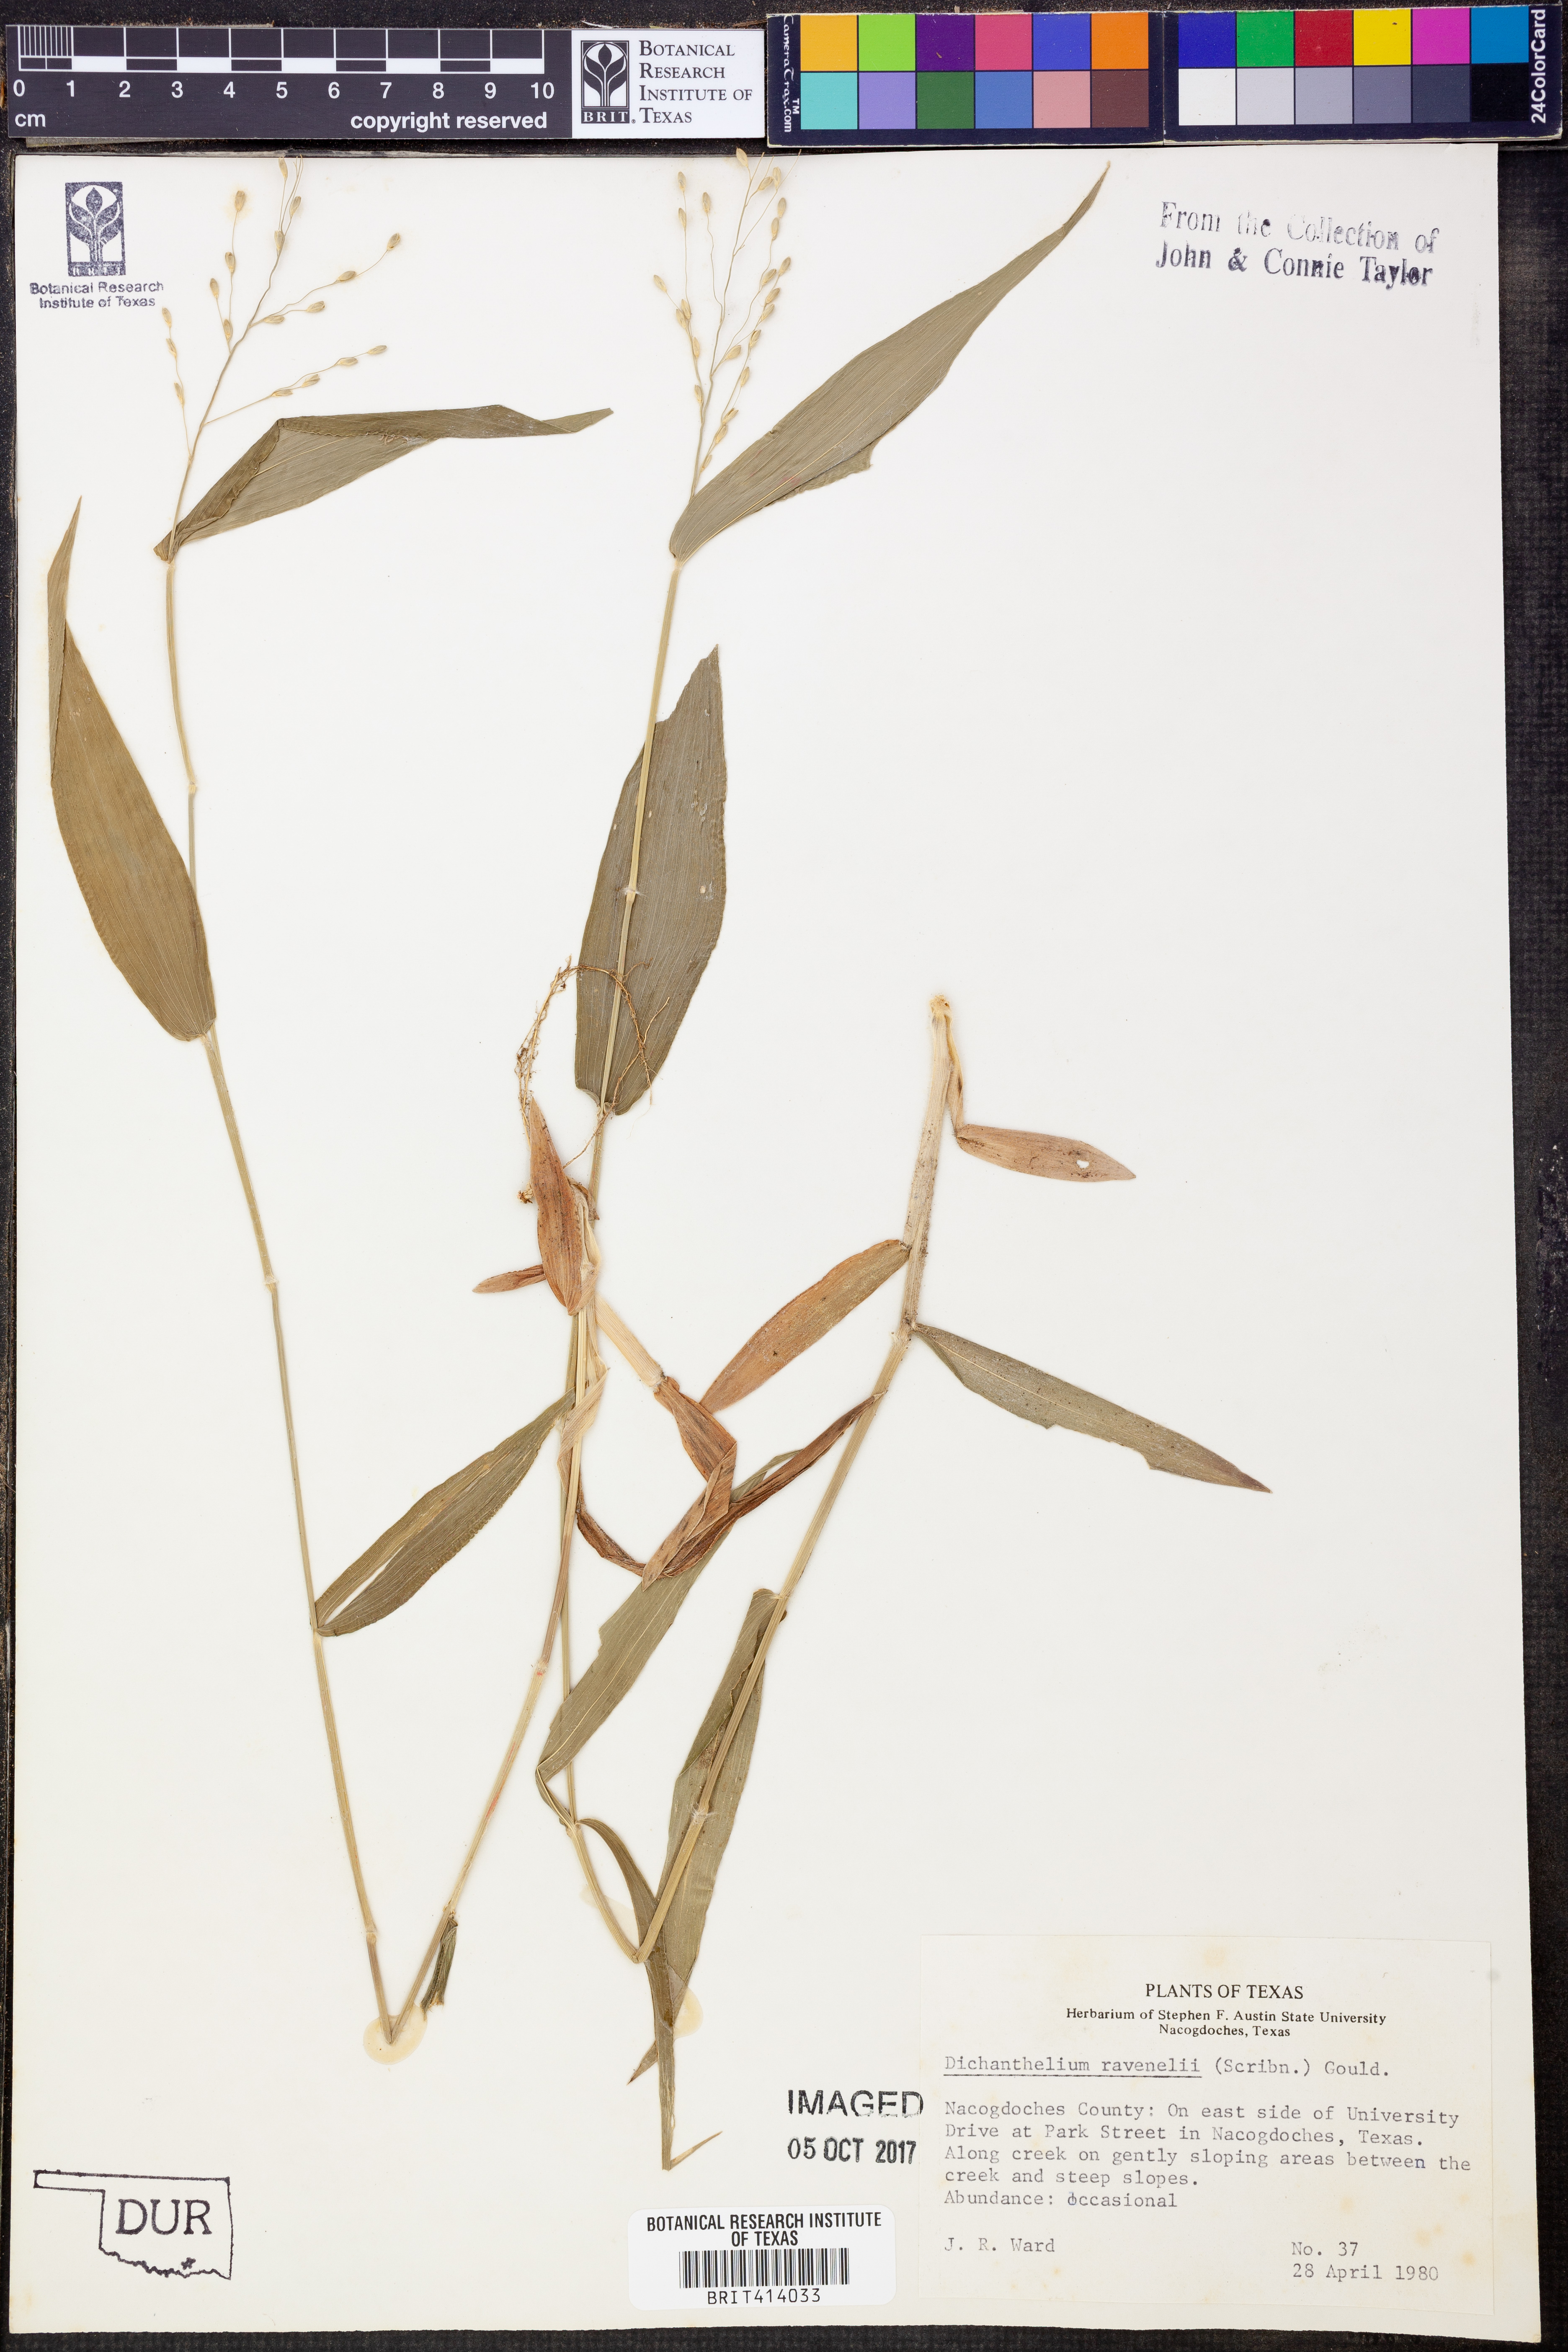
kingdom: Plantae
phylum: Tracheophyta
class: Liliopsida
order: Poales
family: Poaceae
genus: Dichanthelium
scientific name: Dichanthelium ravenelii
